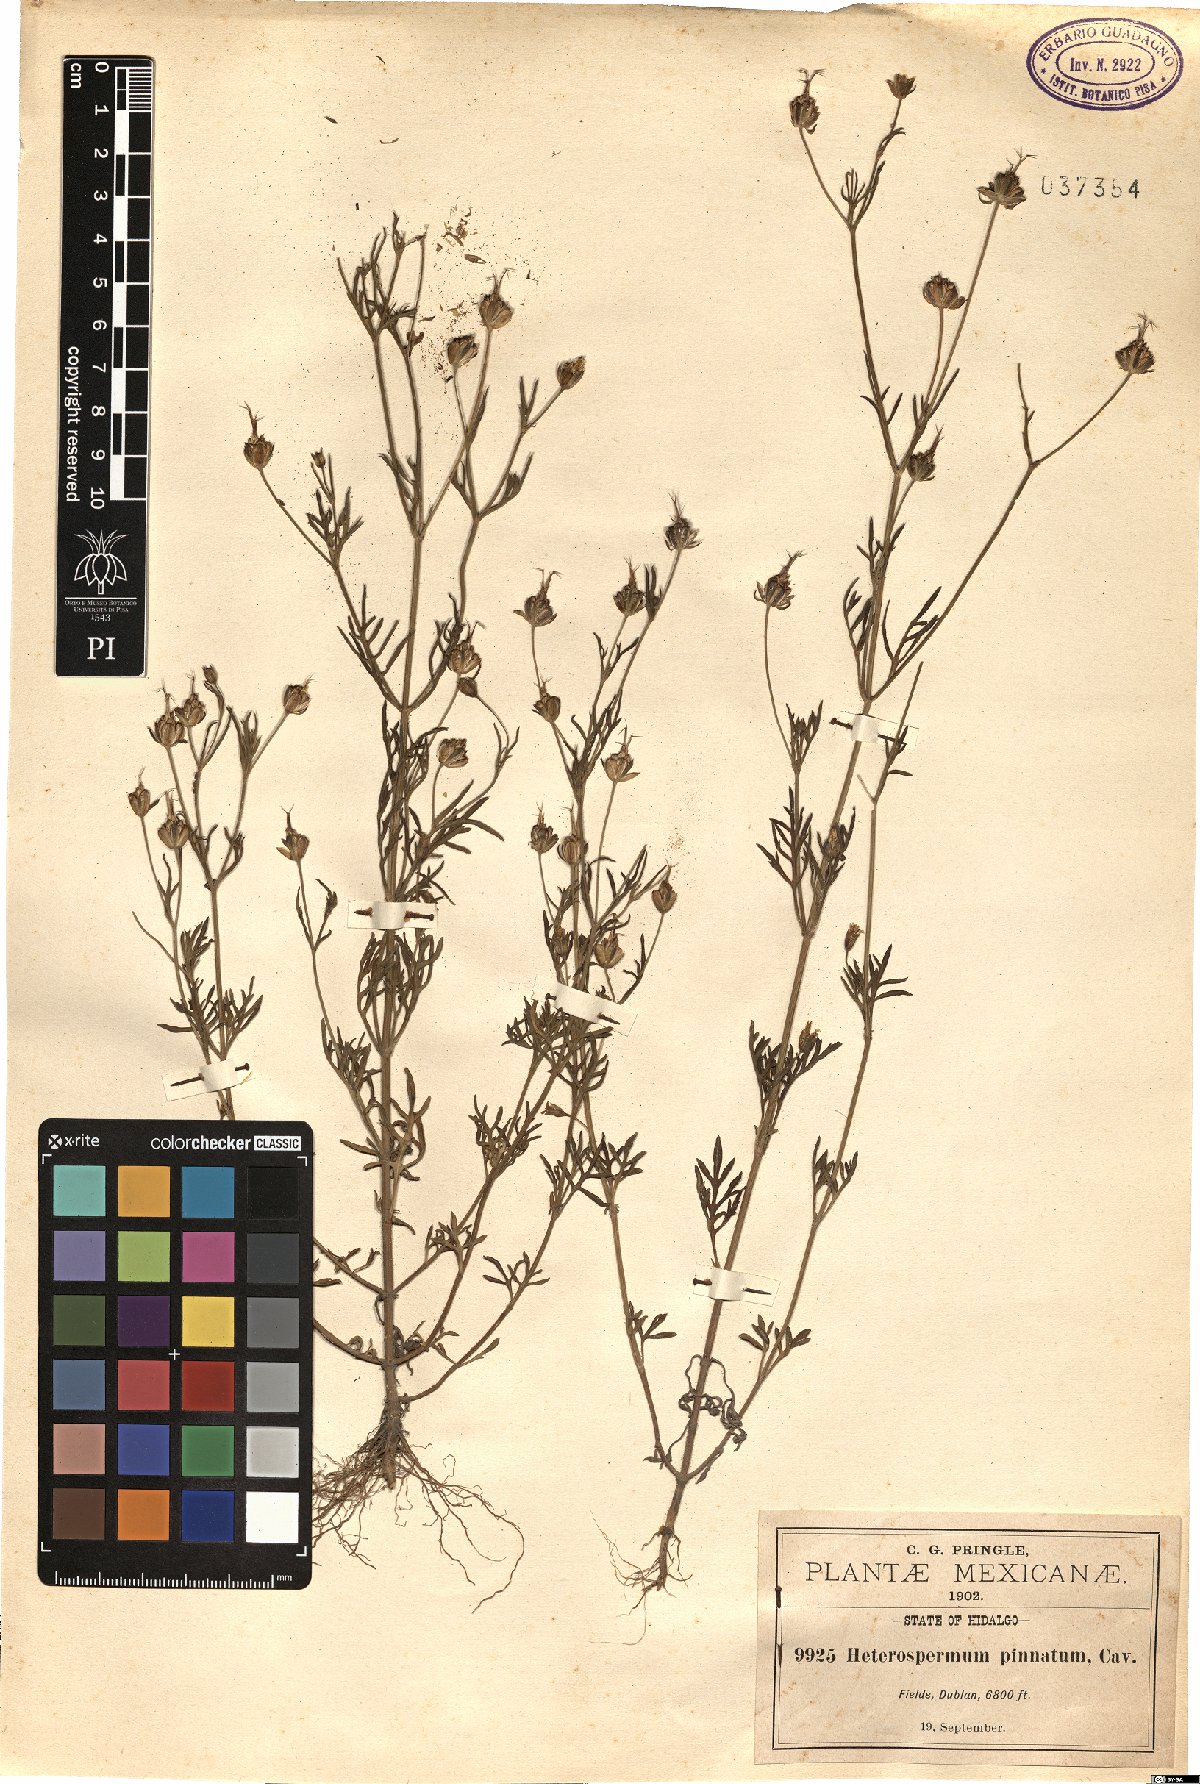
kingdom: Plantae
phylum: Tracheophyta
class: Magnoliopsida
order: Asterales
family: Asteraceae
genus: Heterosperma
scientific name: Heterosperma pinnatum
